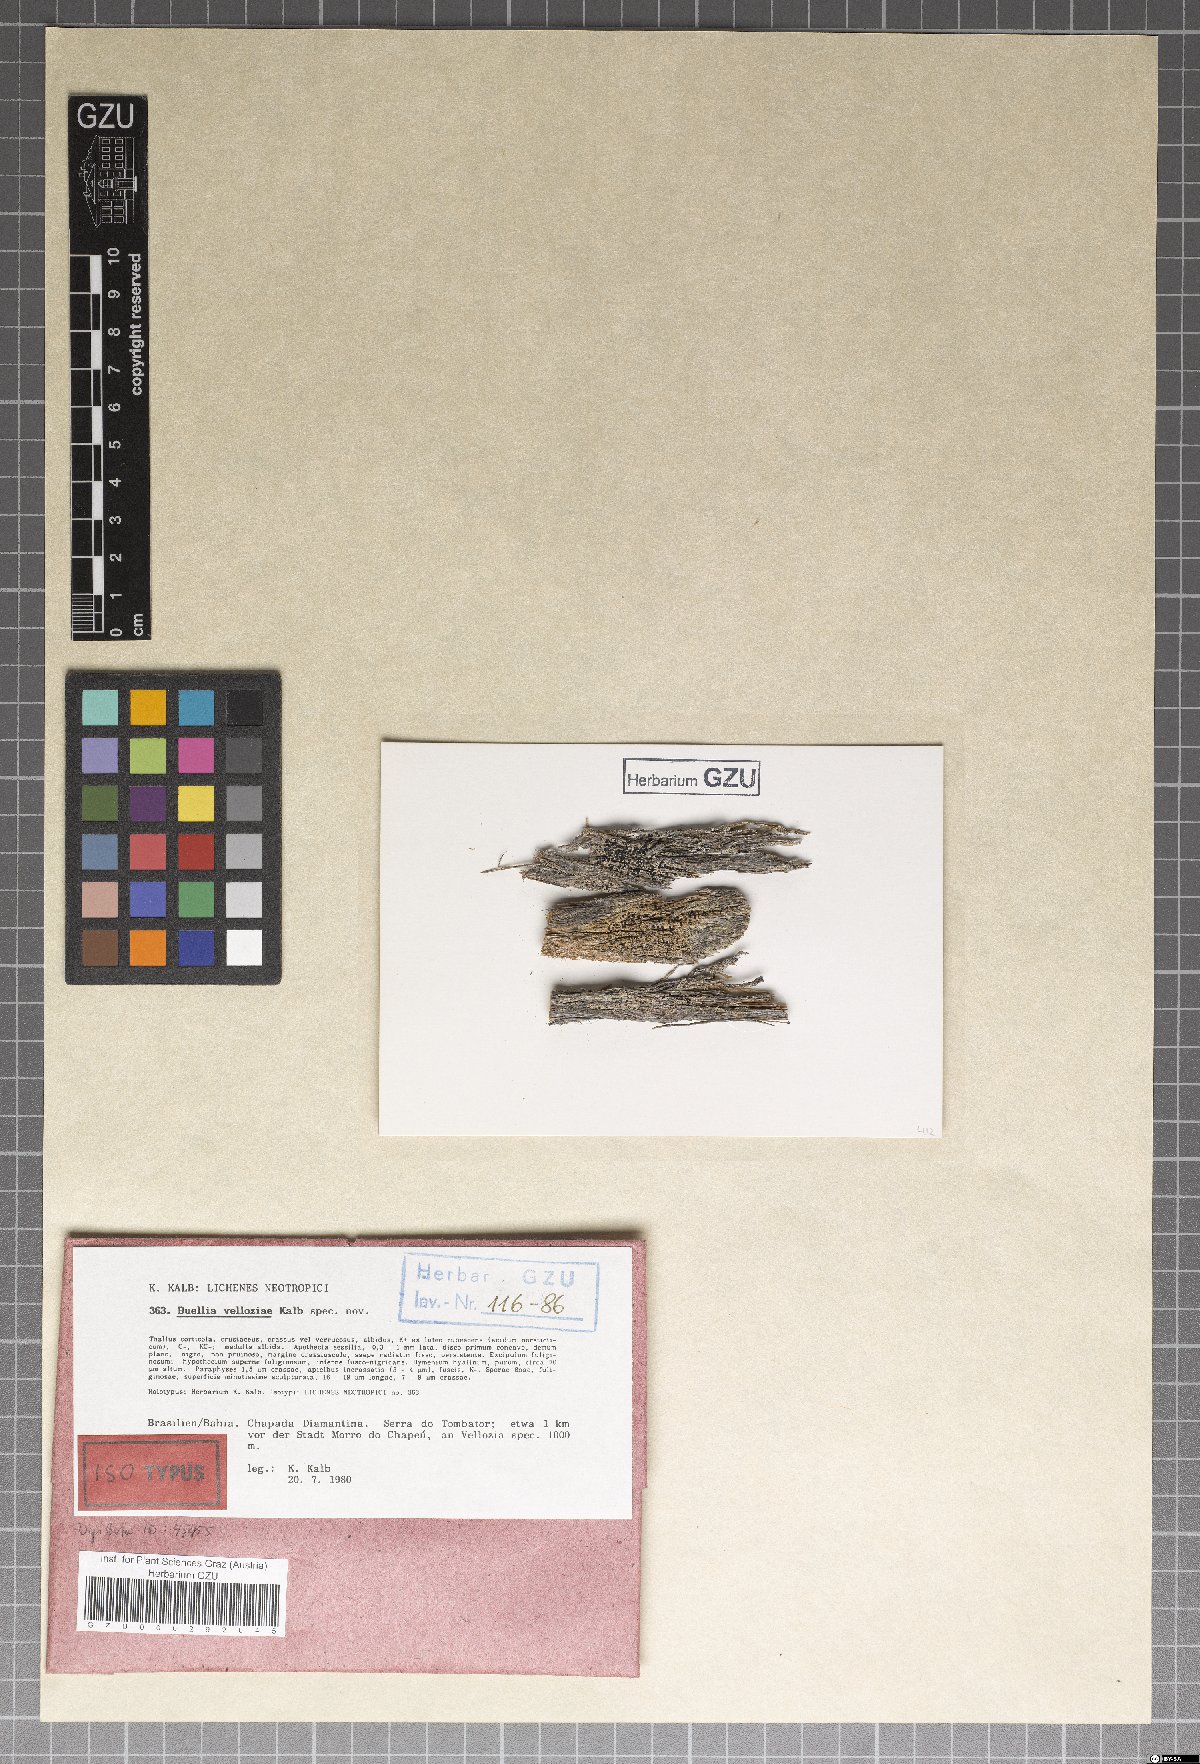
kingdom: Fungi
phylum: Ascomycota
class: Lecanoromycetes
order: Caliciales
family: Caliciaceae
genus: Hypoflavia
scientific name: Hypoflavia velloziae
